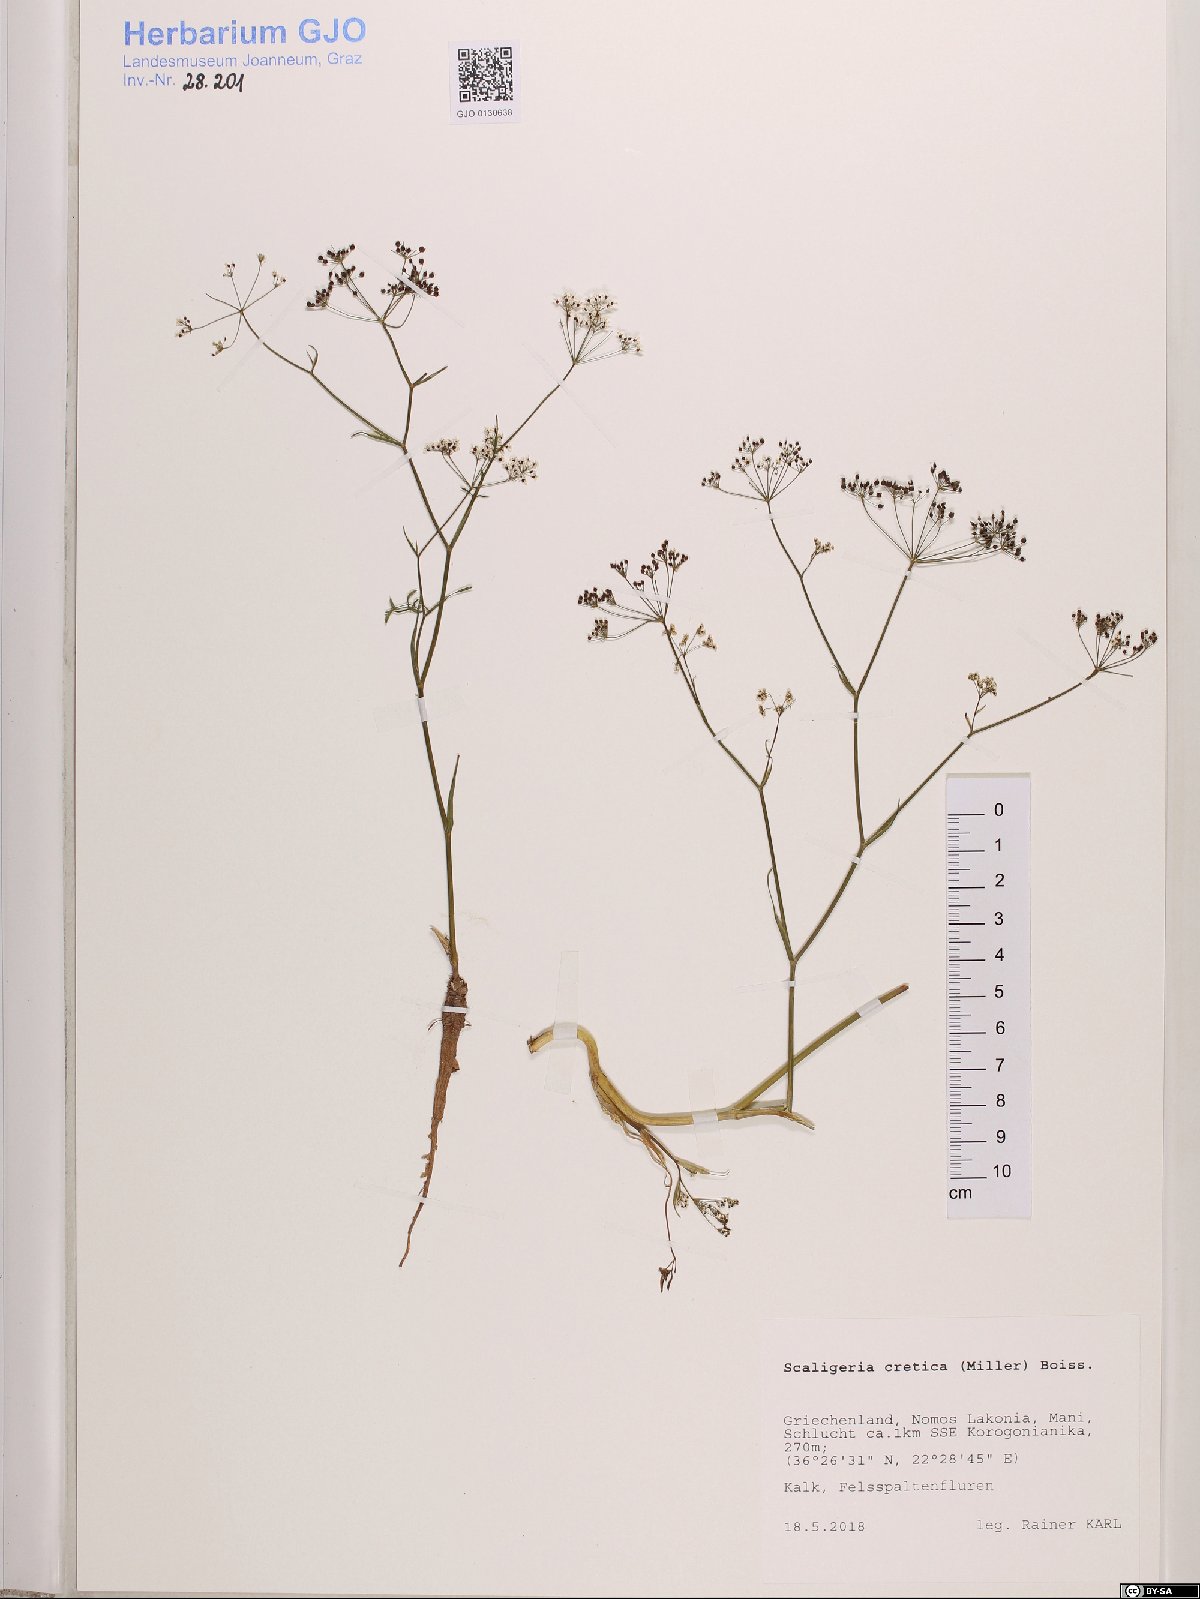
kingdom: Plantae
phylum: Tracheophyta
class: Magnoliopsida
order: Apiales
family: Apiaceae
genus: Scaligeria
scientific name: Scaligeria napiformis
